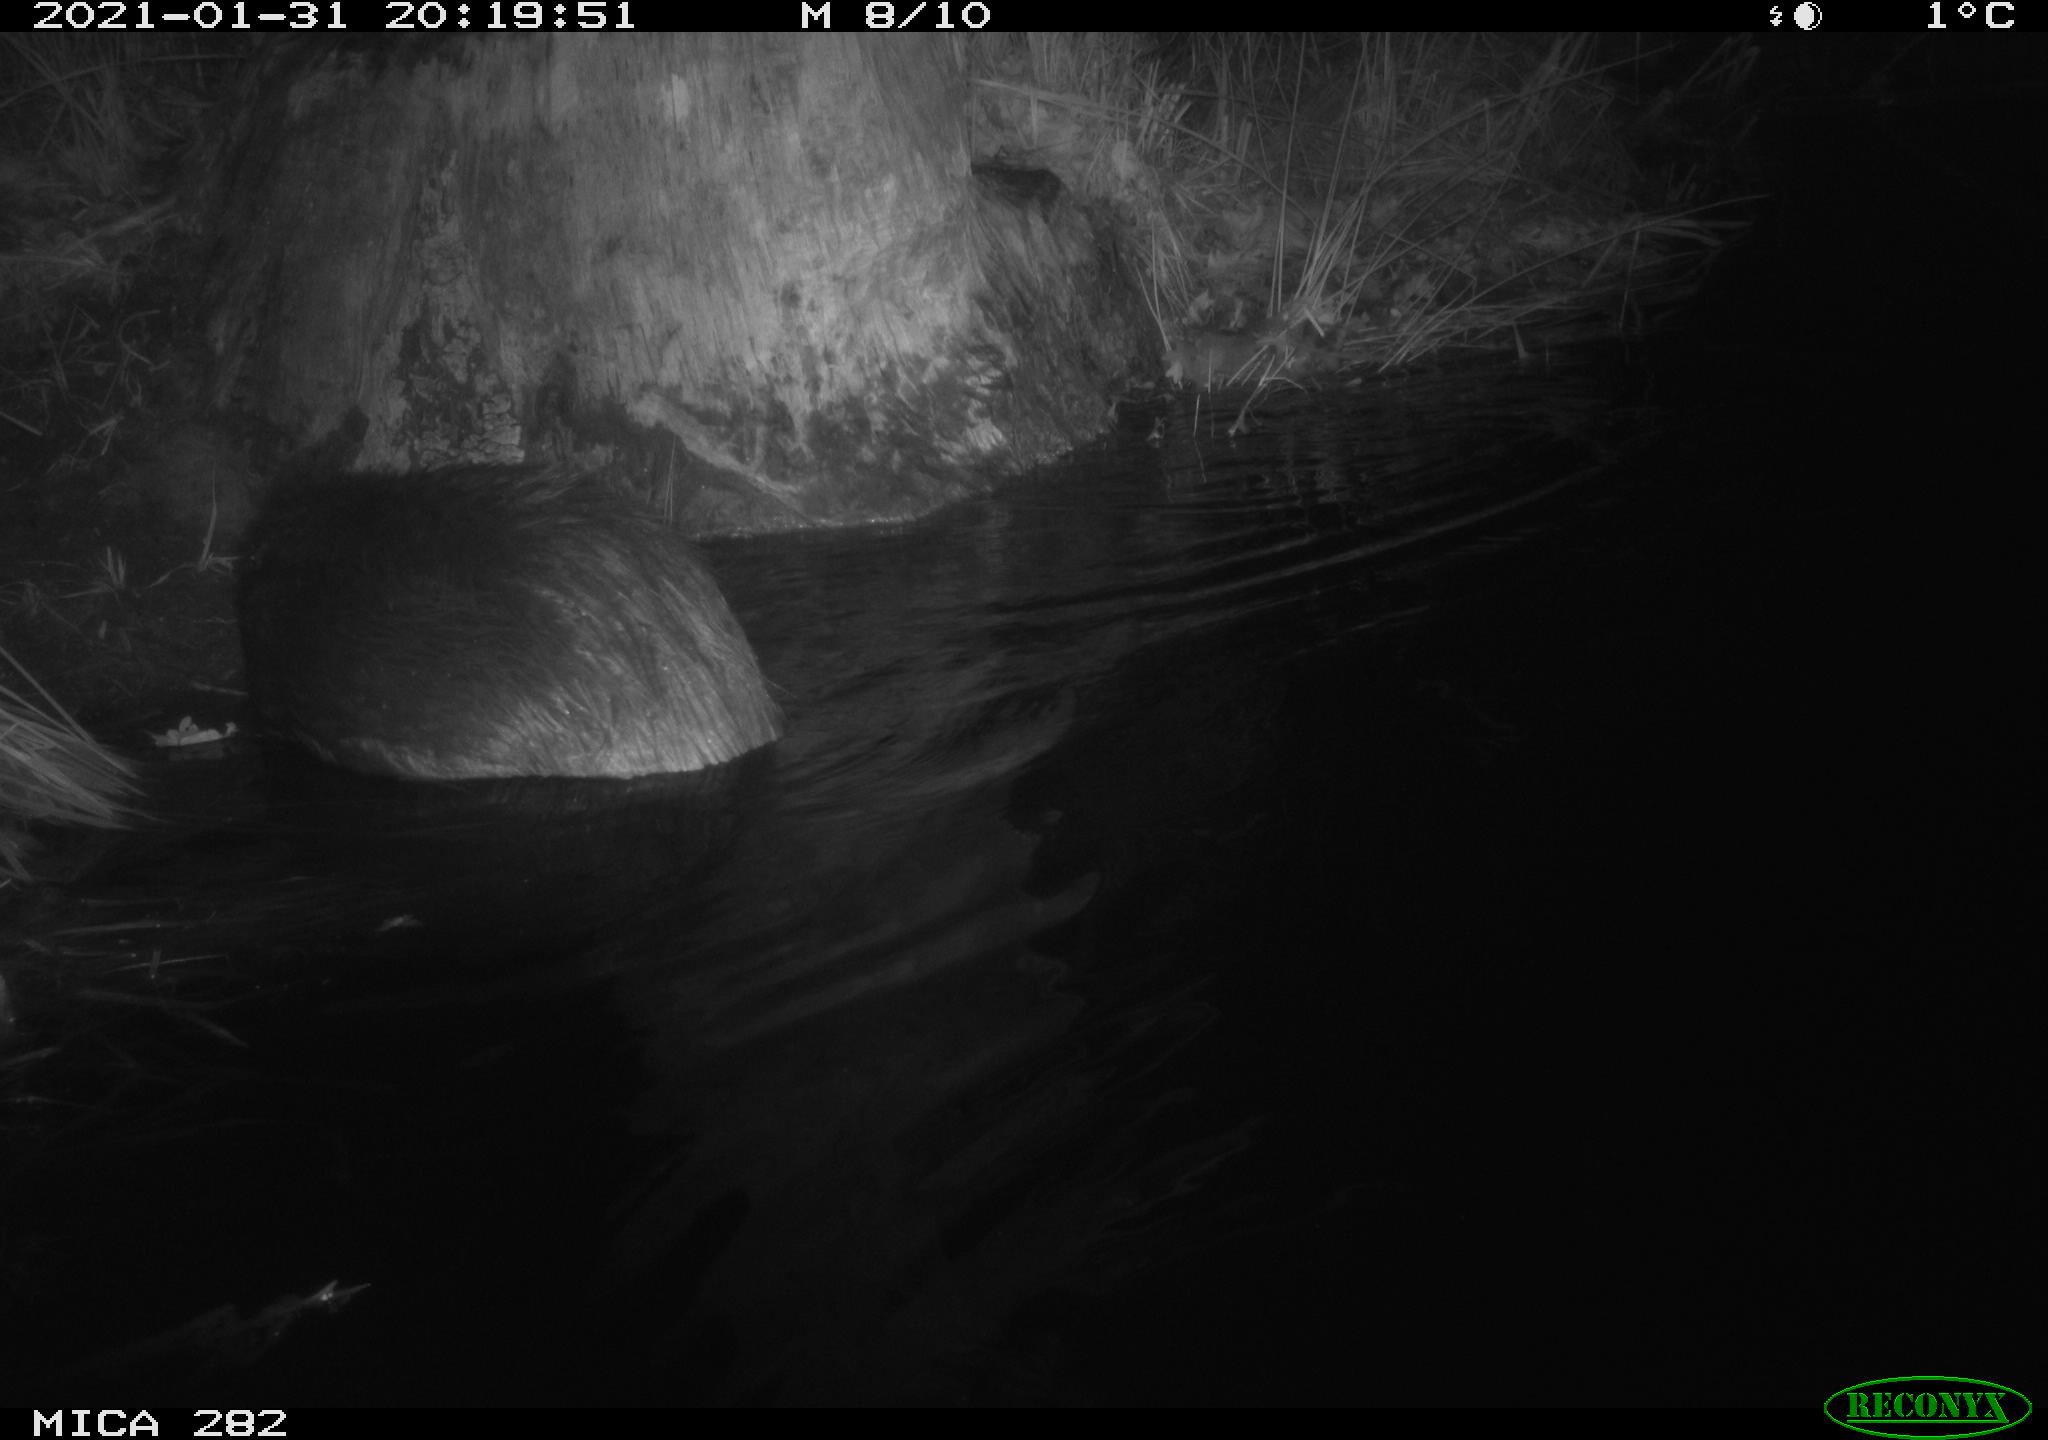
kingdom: Animalia
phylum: Chordata
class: Mammalia
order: Rodentia
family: Castoridae
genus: Castor
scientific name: Castor fiber
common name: Eurasian beaver
